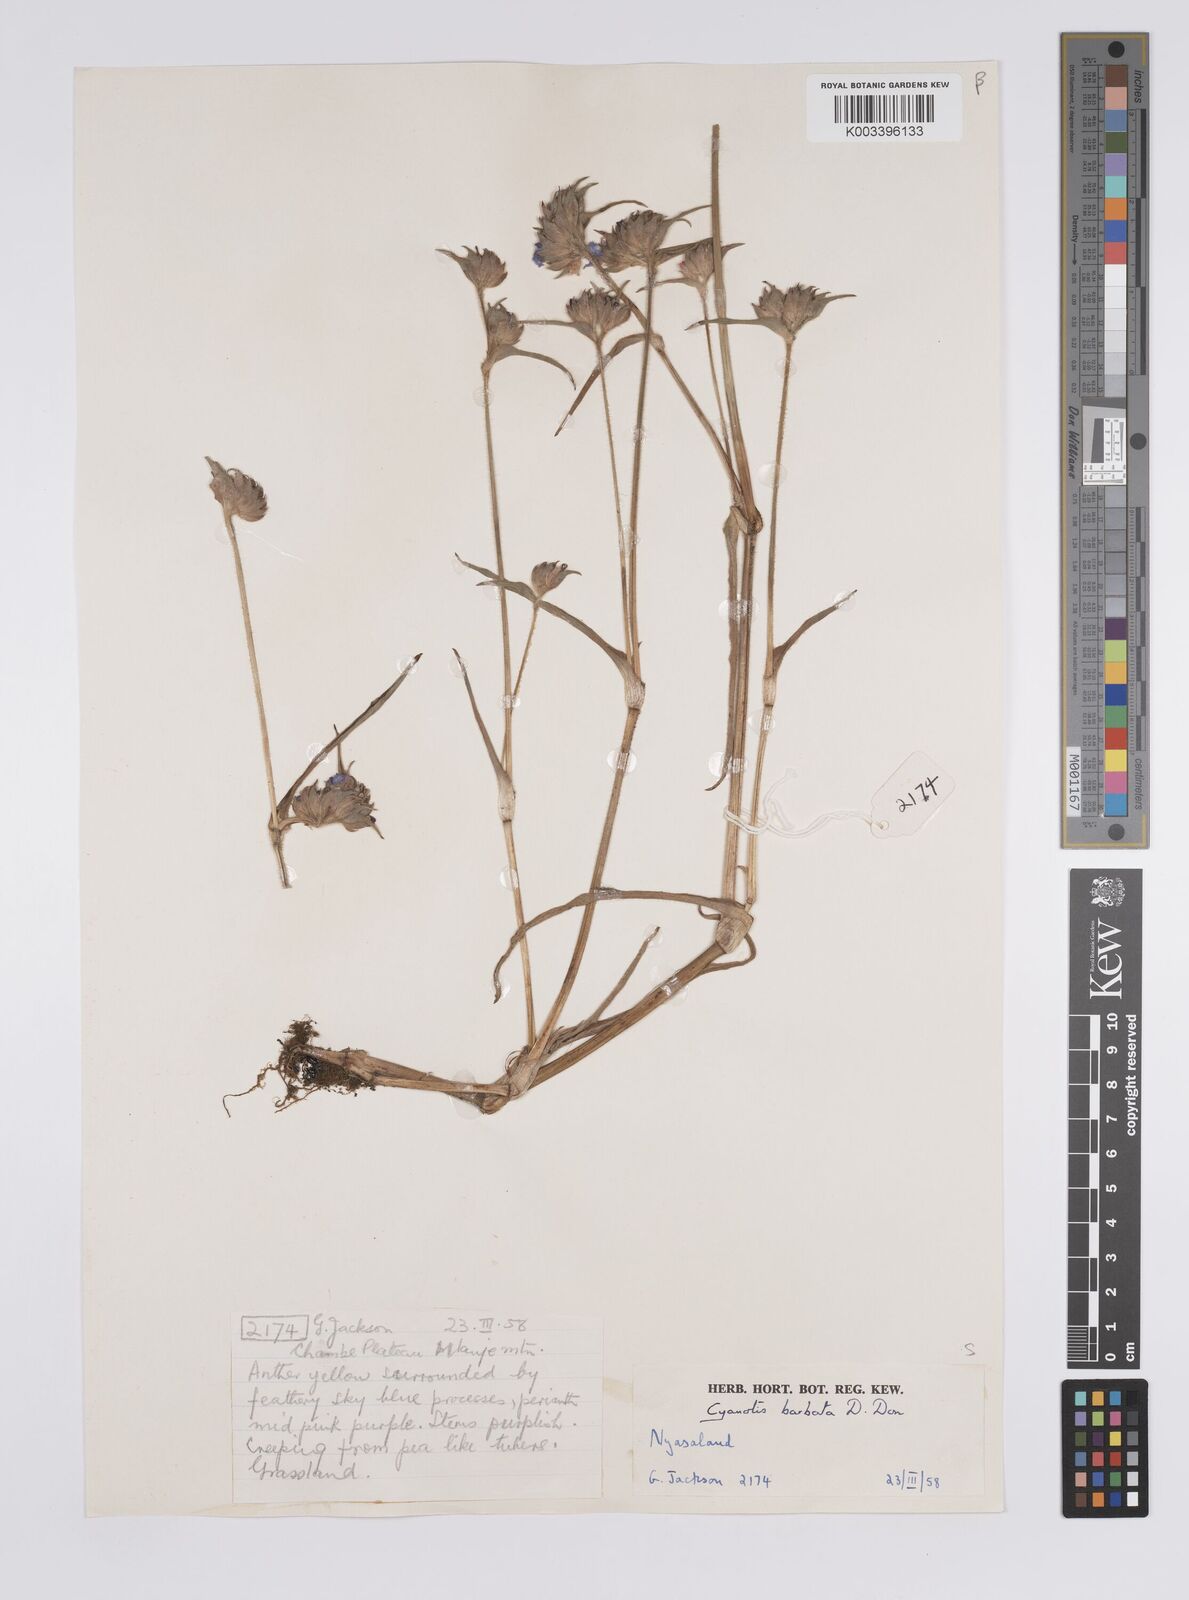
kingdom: Plantae
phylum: Tracheophyta
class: Liliopsida
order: Commelinales
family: Commelinaceae
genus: Cyanotis
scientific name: Cyanotis vaga
